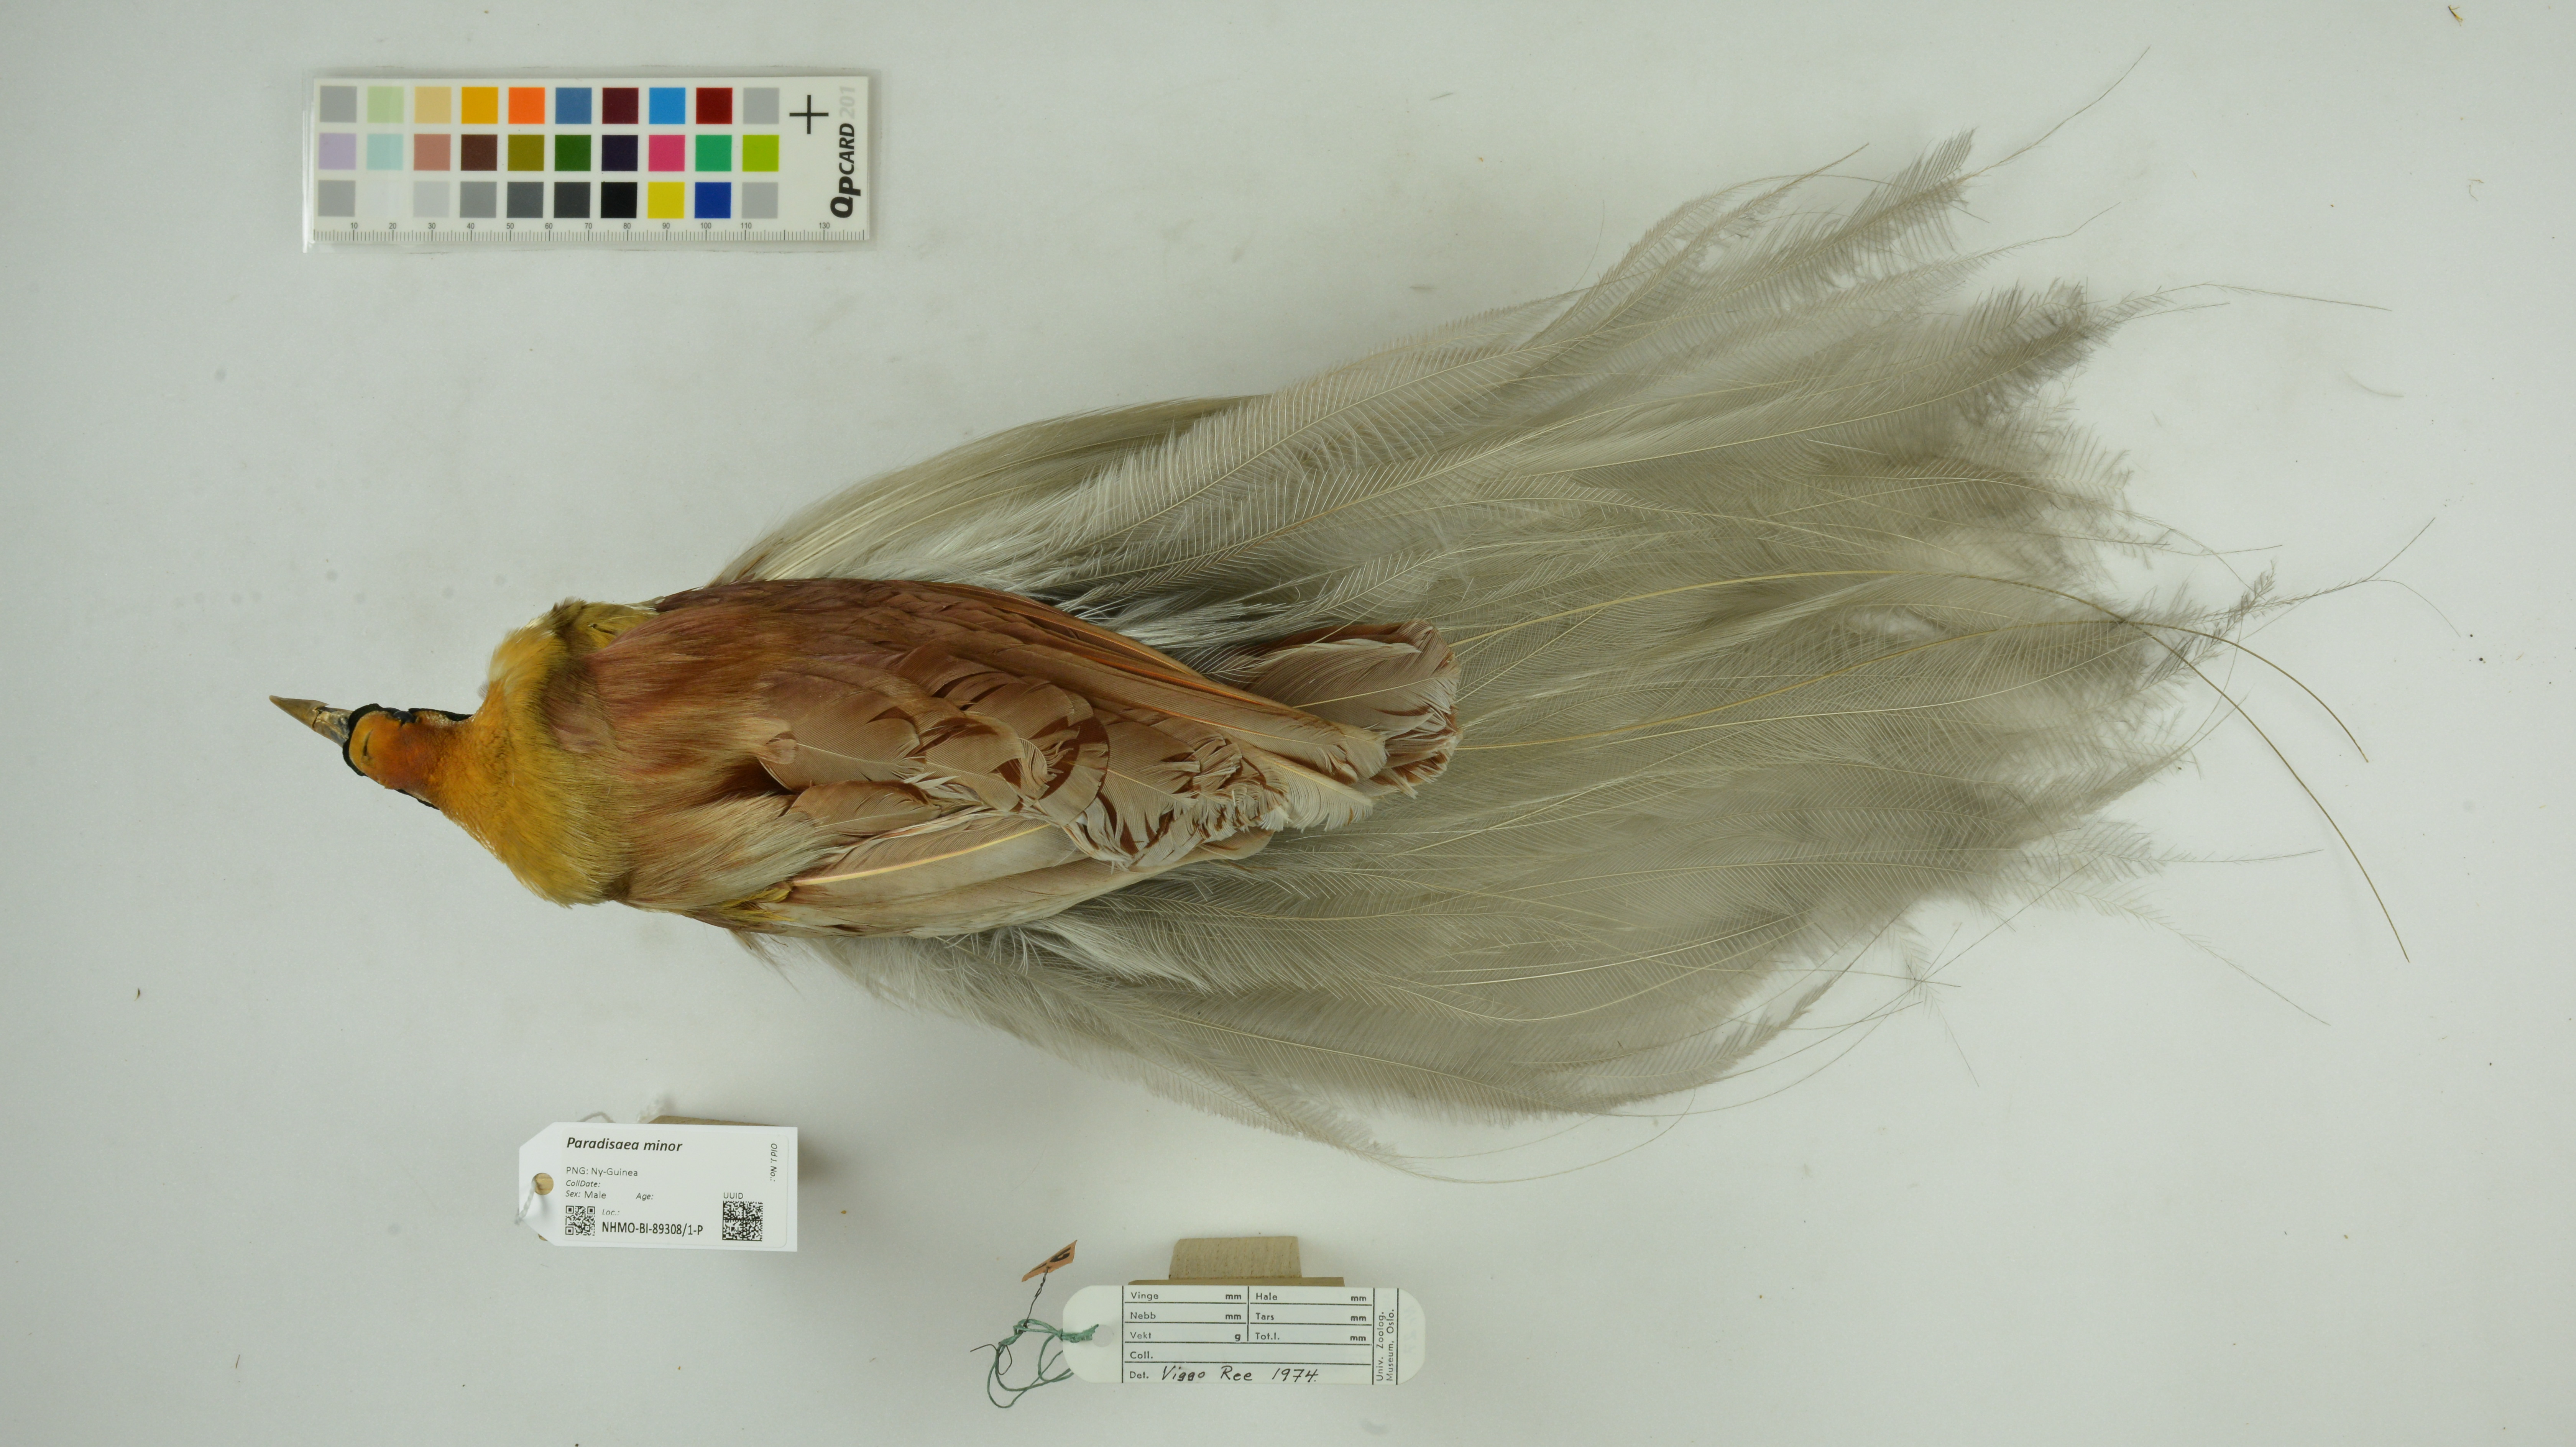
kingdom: Animalia
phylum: Chordata
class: Aves
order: Passeriformes
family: Paradisaeidae
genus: Paradisaea
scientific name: Paradisaea minor
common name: Lesser bird-of-paradise
